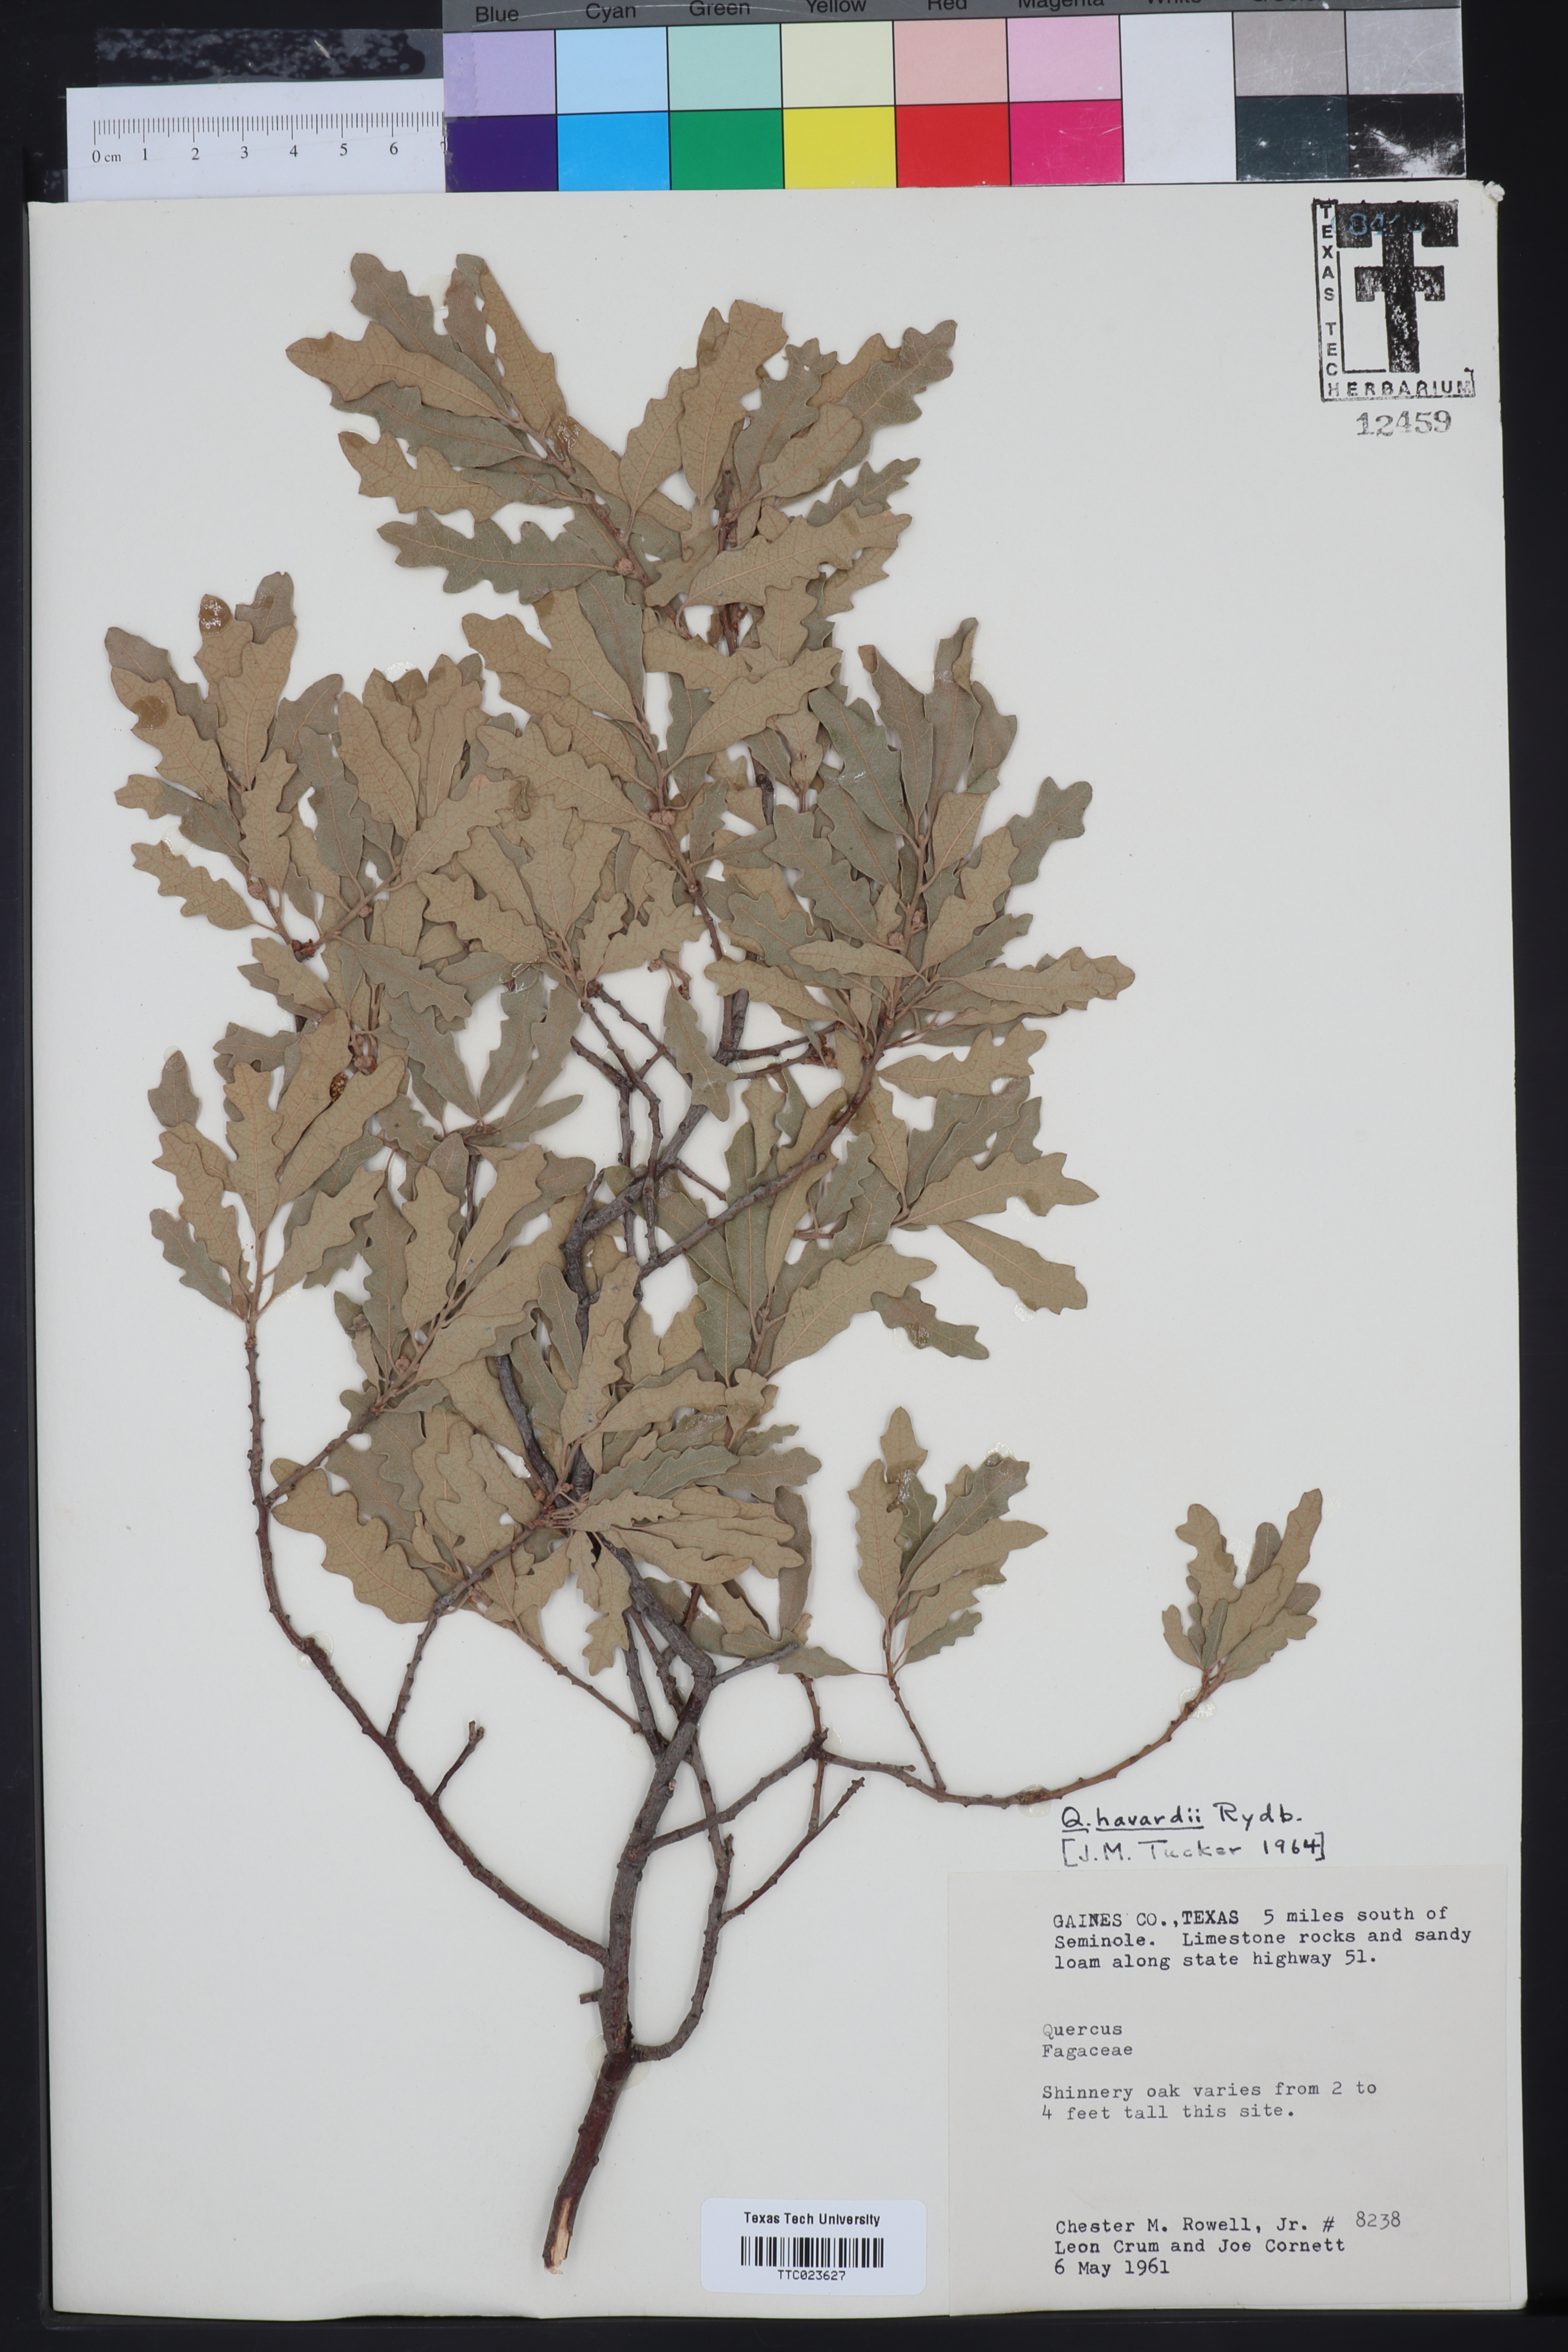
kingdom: Plantae
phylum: Tracheophyta
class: Magnoliopsida
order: Fagales
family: Fagaceae
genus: Quercus
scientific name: Quercus havardii
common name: Shinnery oak
